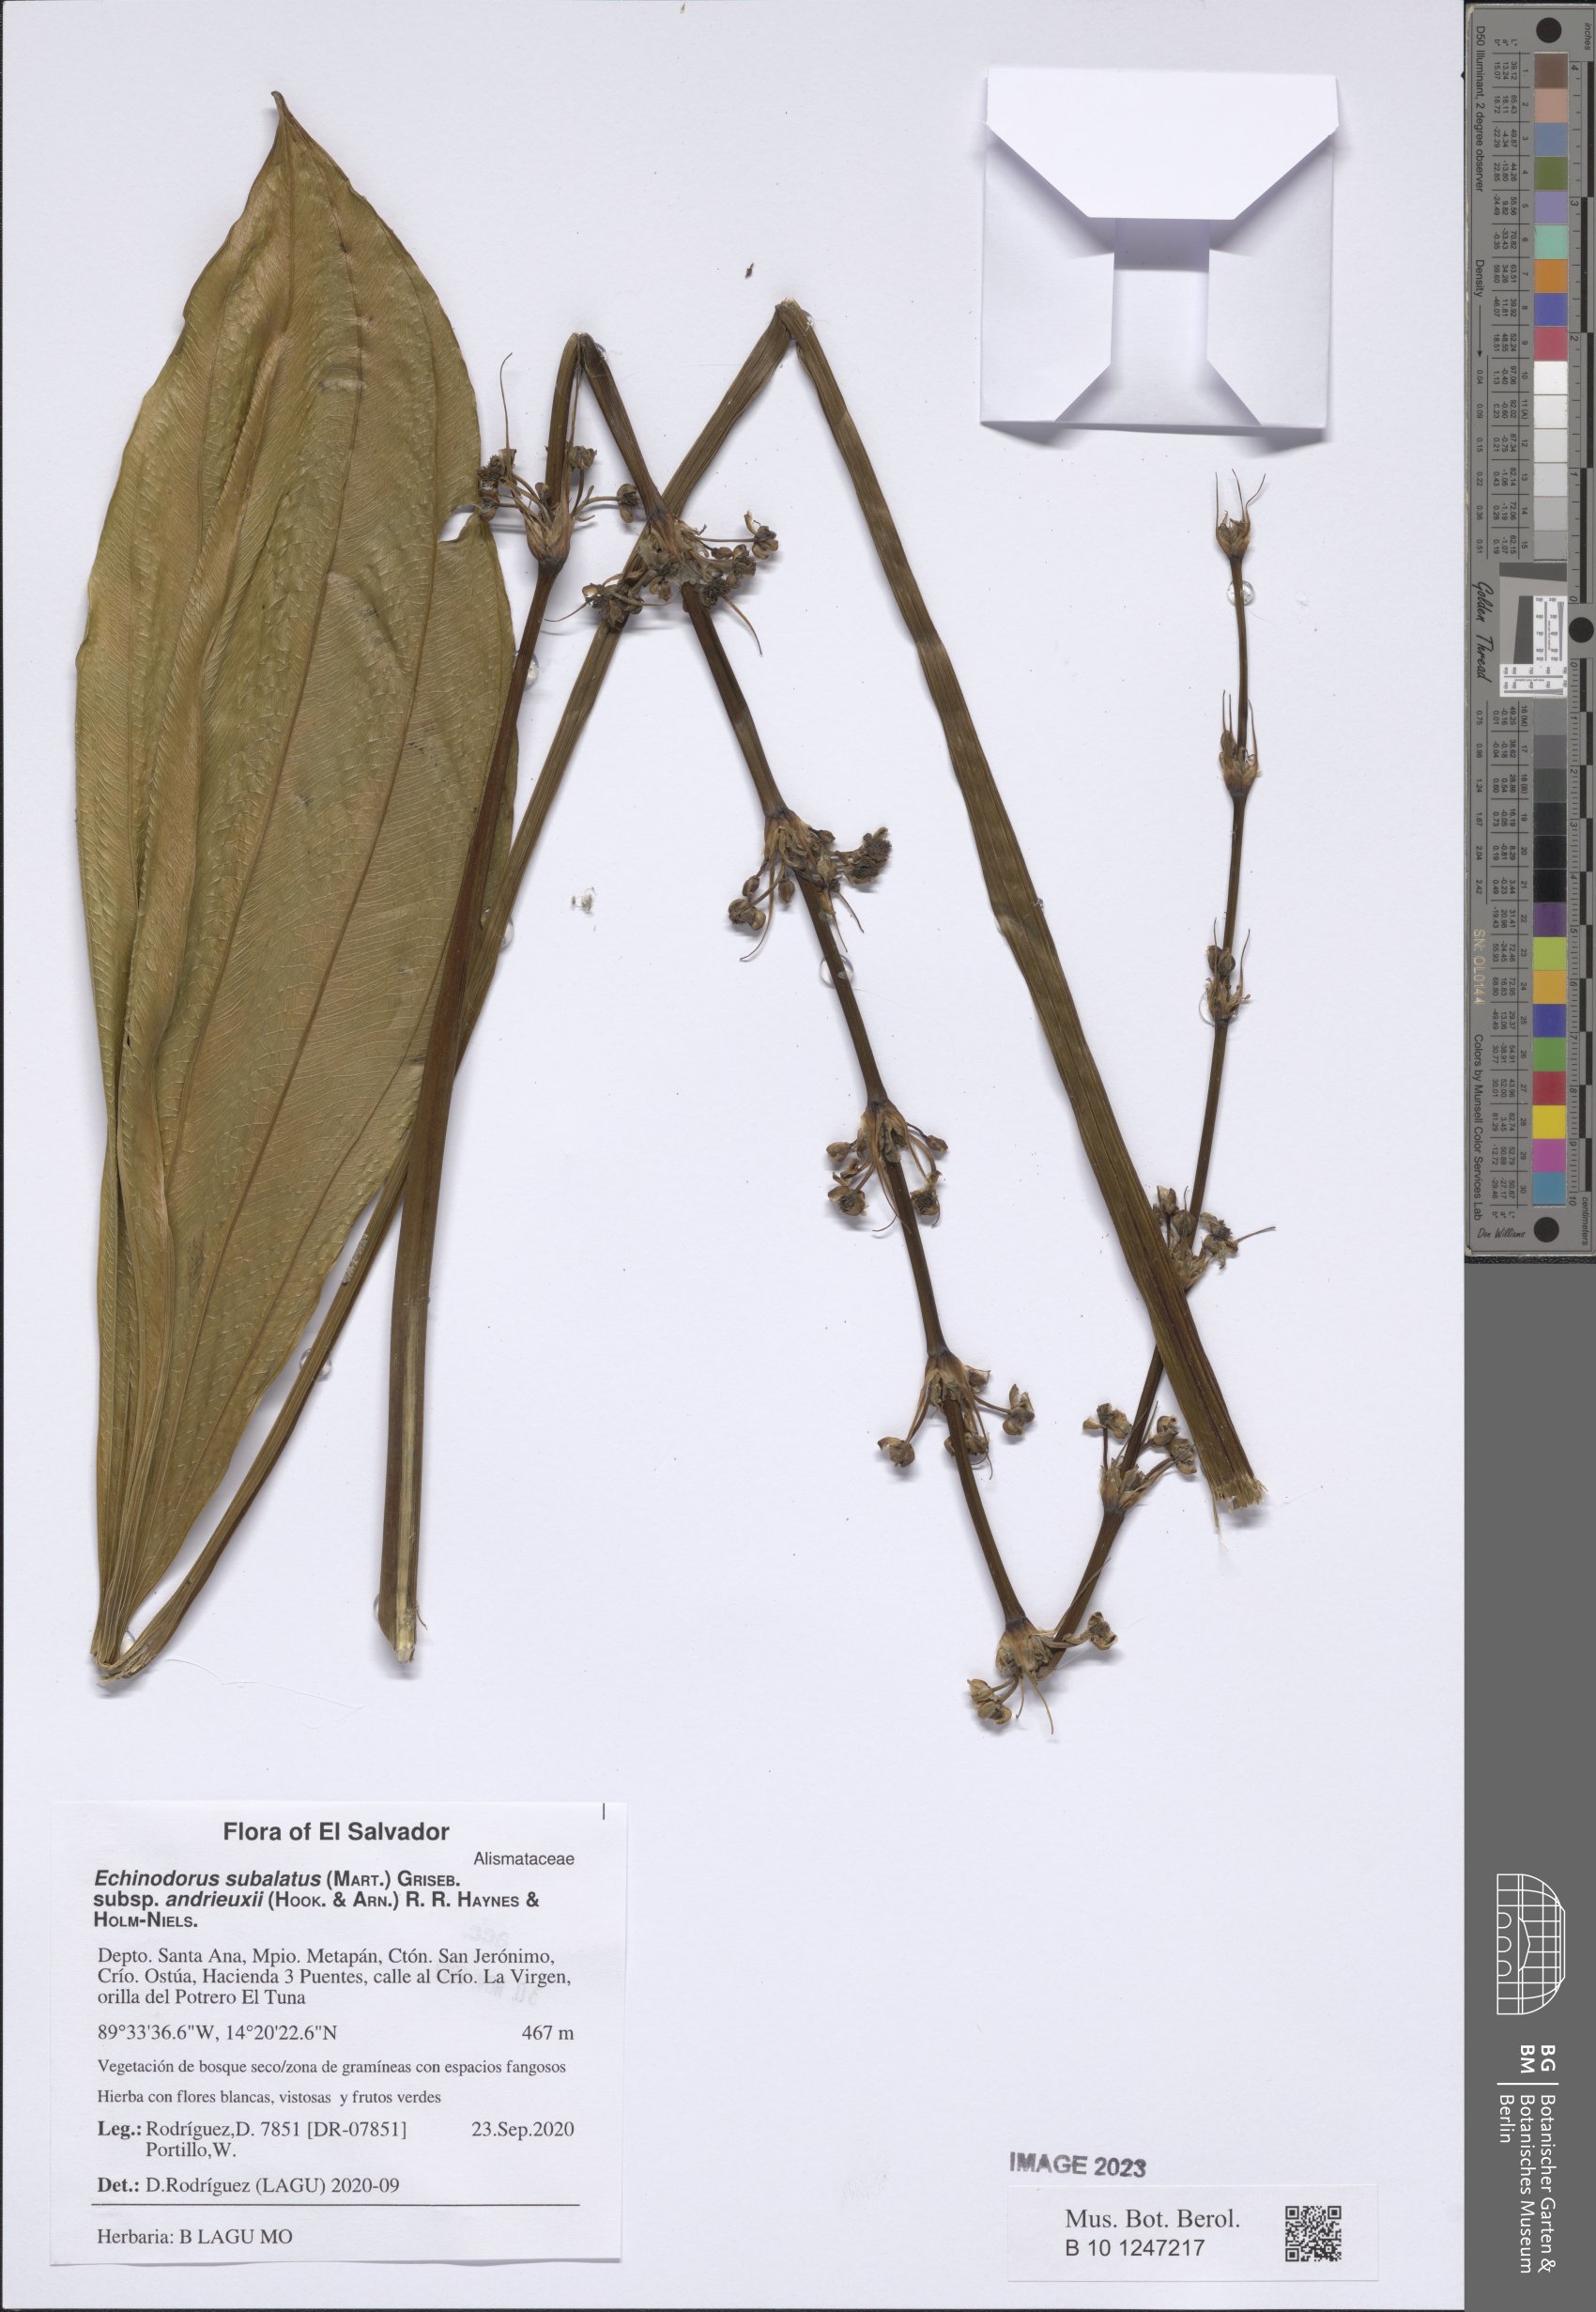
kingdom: Plantae
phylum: Tracheophyta
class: Liliopsida
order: Alismatales
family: Alismataceae
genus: Aquarius
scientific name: Aquarius subulatus
